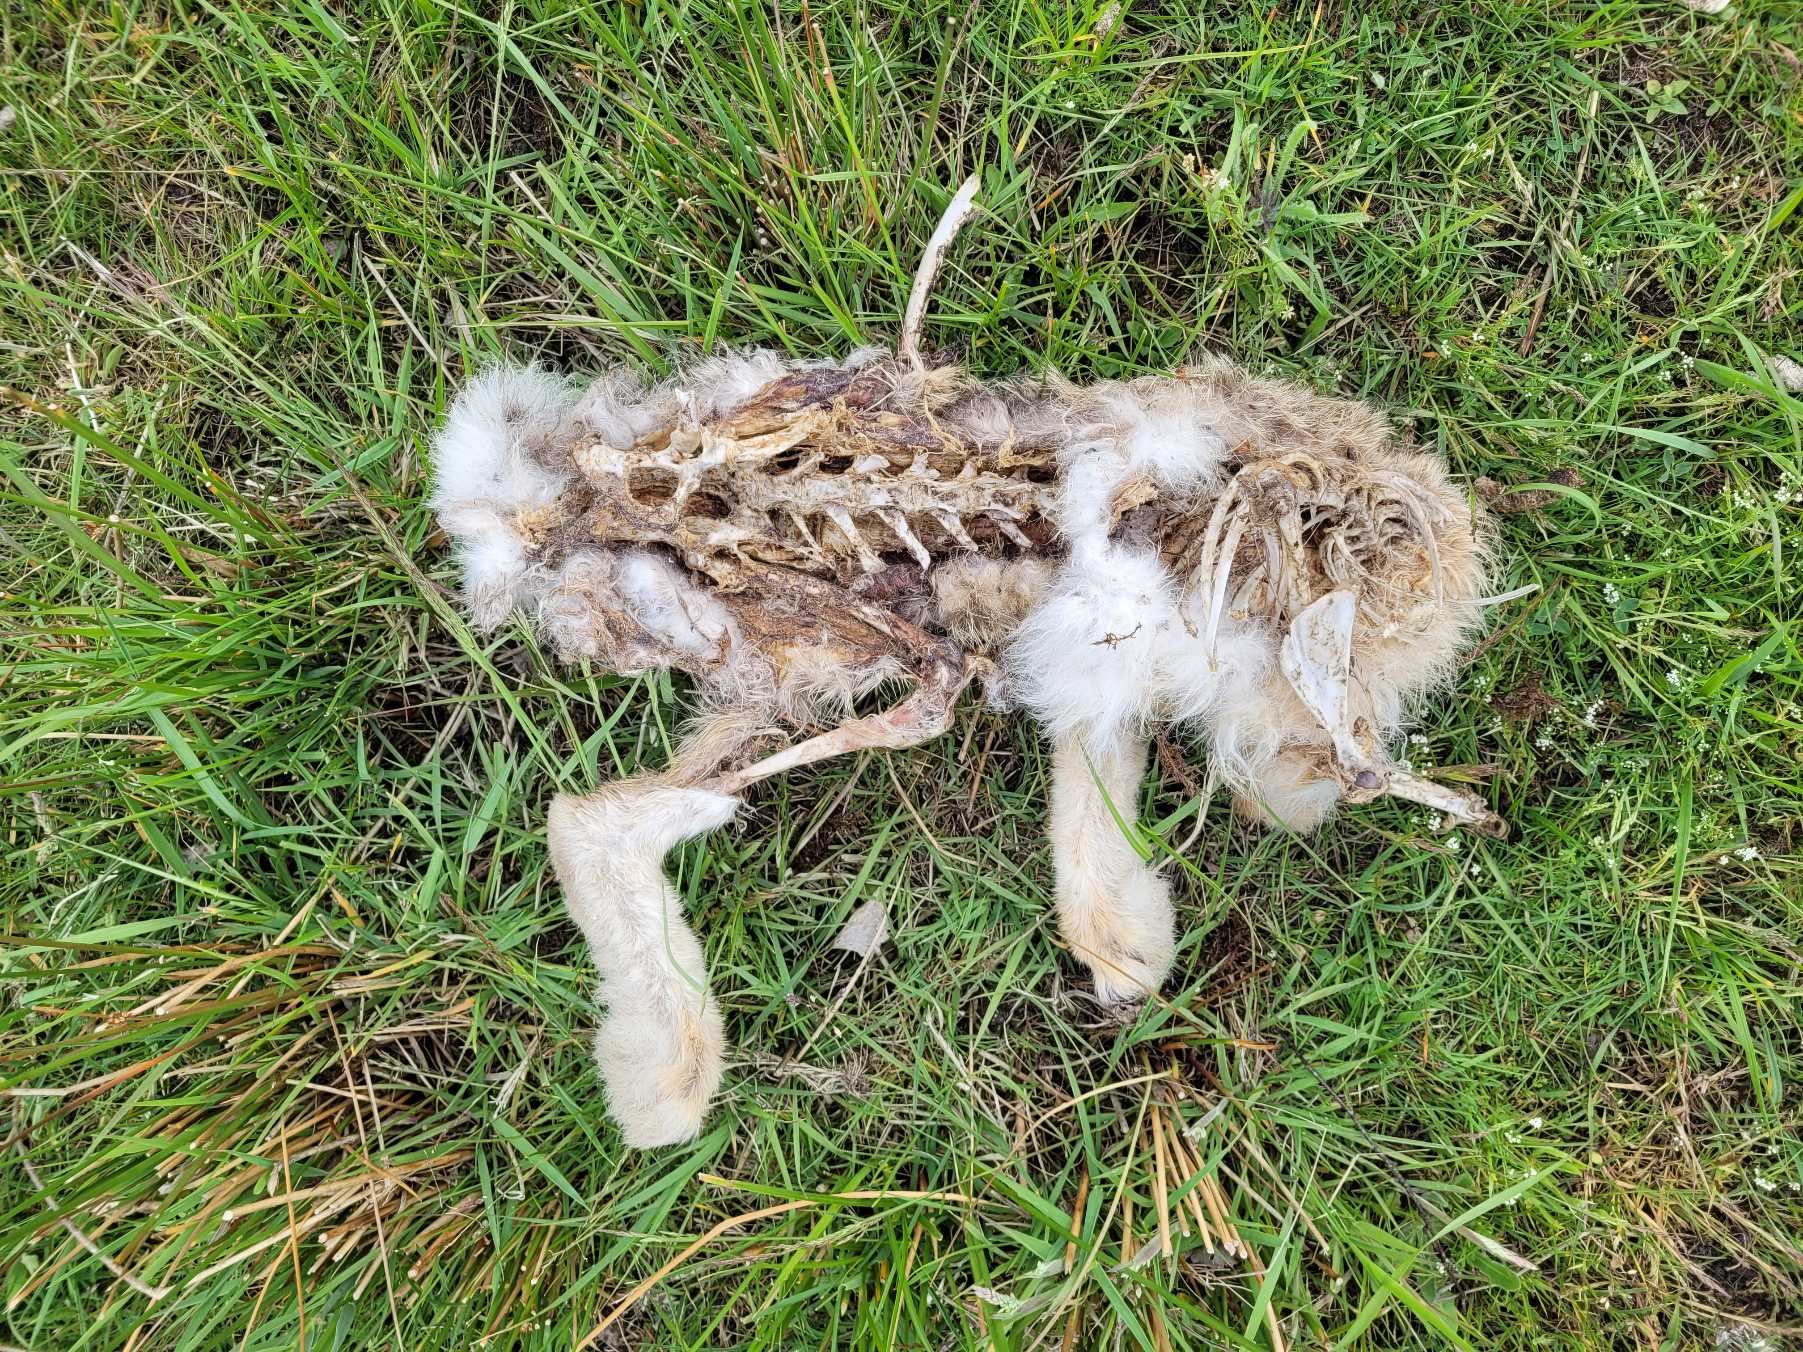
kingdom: Animalia
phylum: Chordata
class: Mammalia
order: Lagomorpha
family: Leporidae
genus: Lepus
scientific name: Lepus europaeus
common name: Hare
